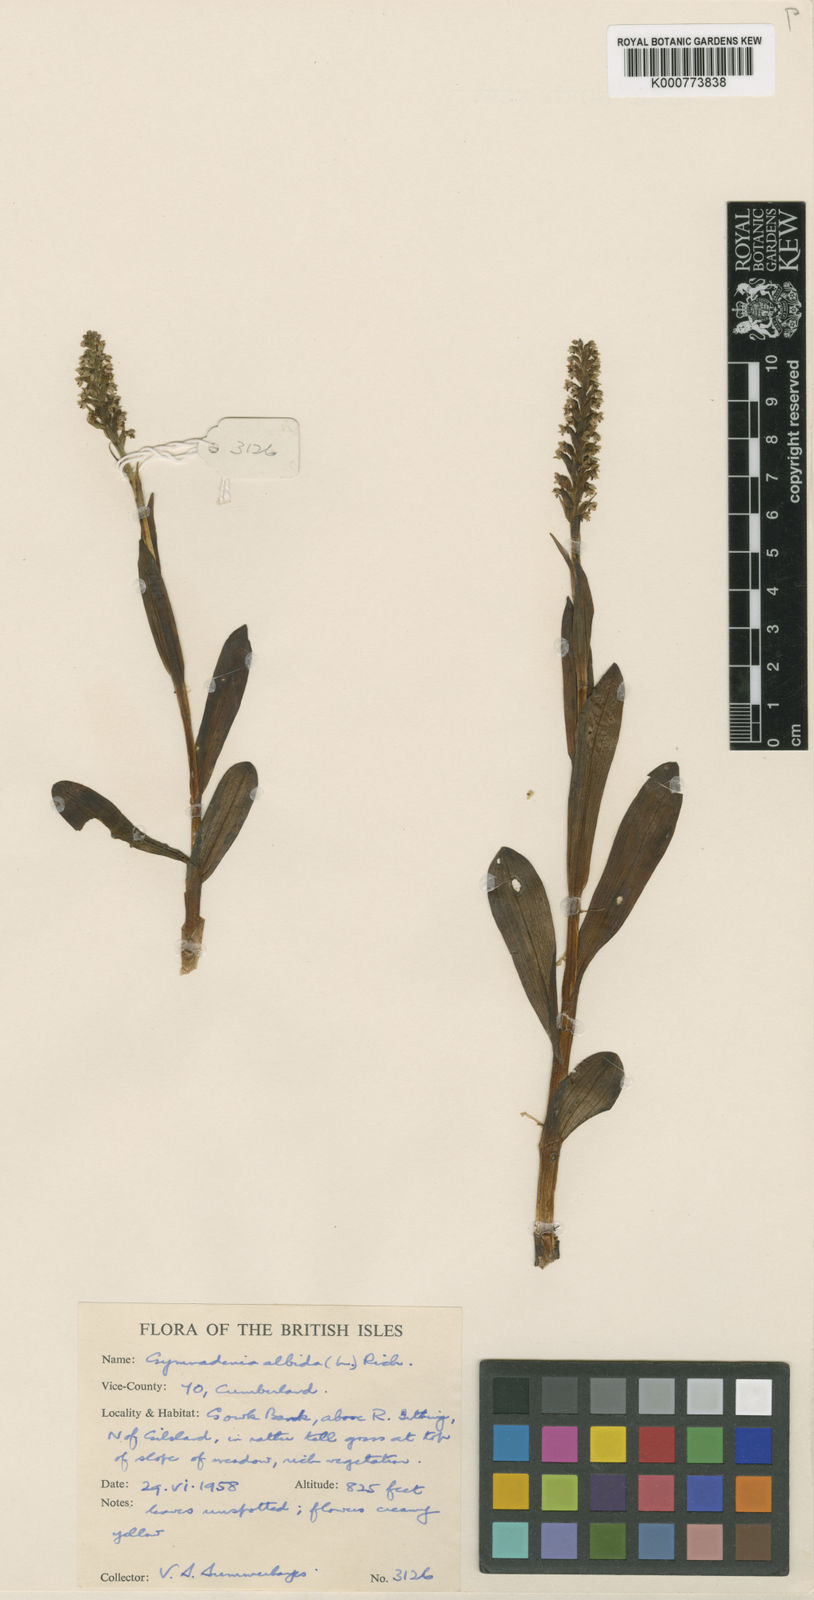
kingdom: Plantae
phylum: Tracheophyta
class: Liliopsida
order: Asparagales
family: Orchidaceae
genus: Pseudorchis
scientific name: Pseudorchis
